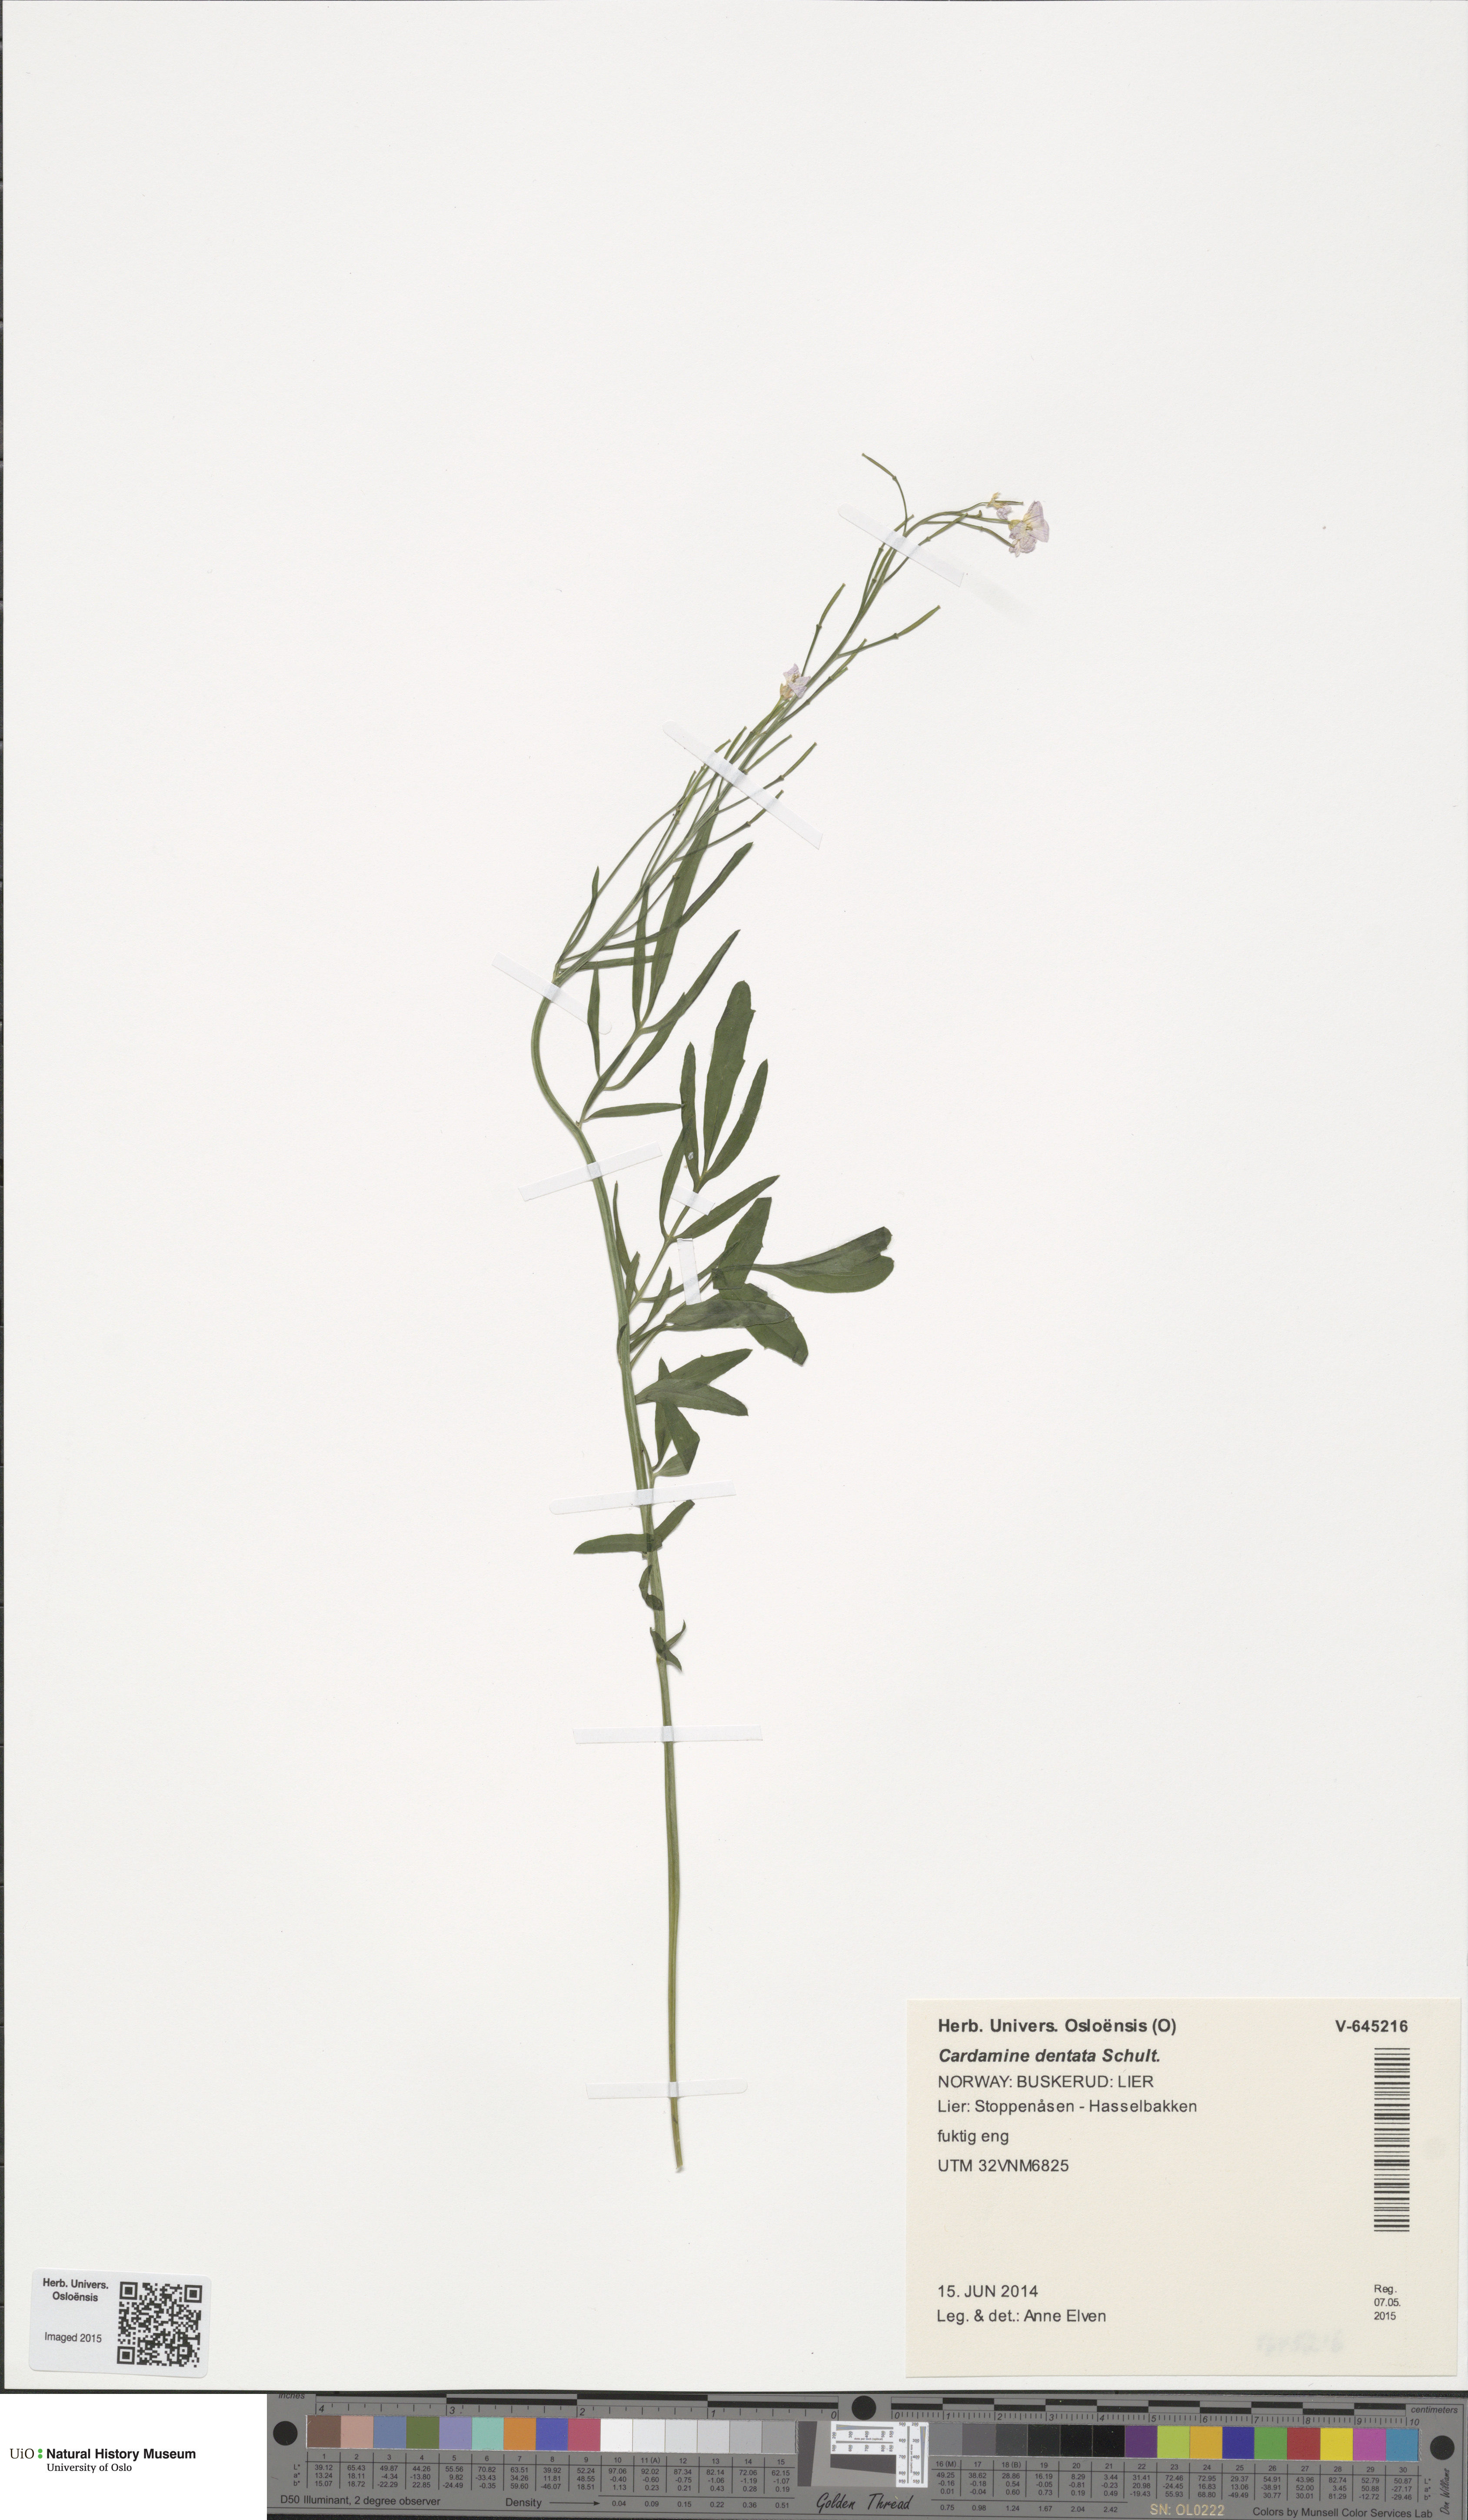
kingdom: Plantae
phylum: Tracheophyta
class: Magnoliopsida
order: Brassicales
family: Brassicaceae
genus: Cardamine
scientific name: Cardamine dentata
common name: Toothed bittercress
